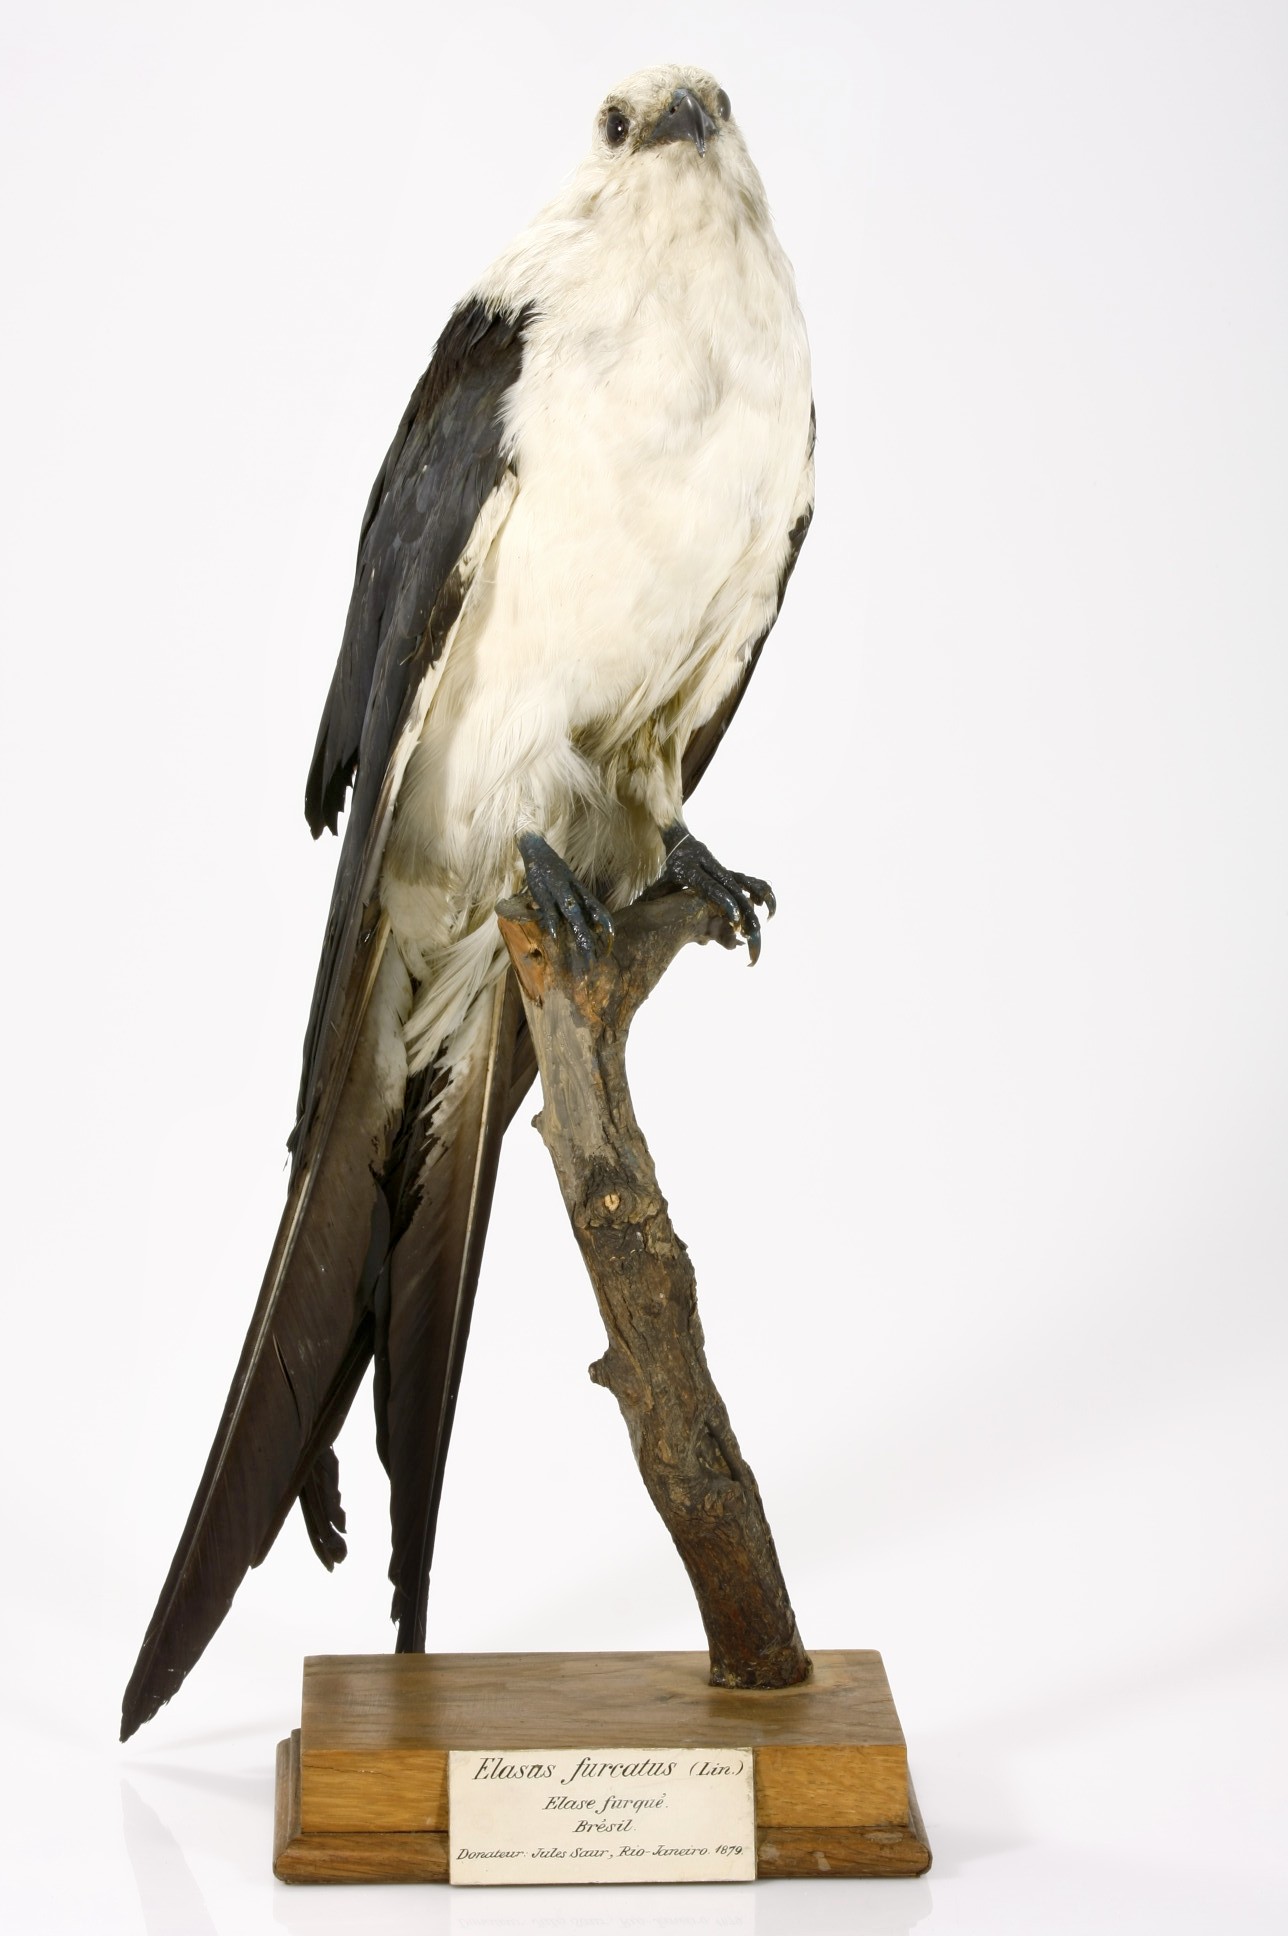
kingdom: Animalia
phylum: Chordata
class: Aves
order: Accipitriformes
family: Accipitridae
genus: Elanoides
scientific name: Elanoides
